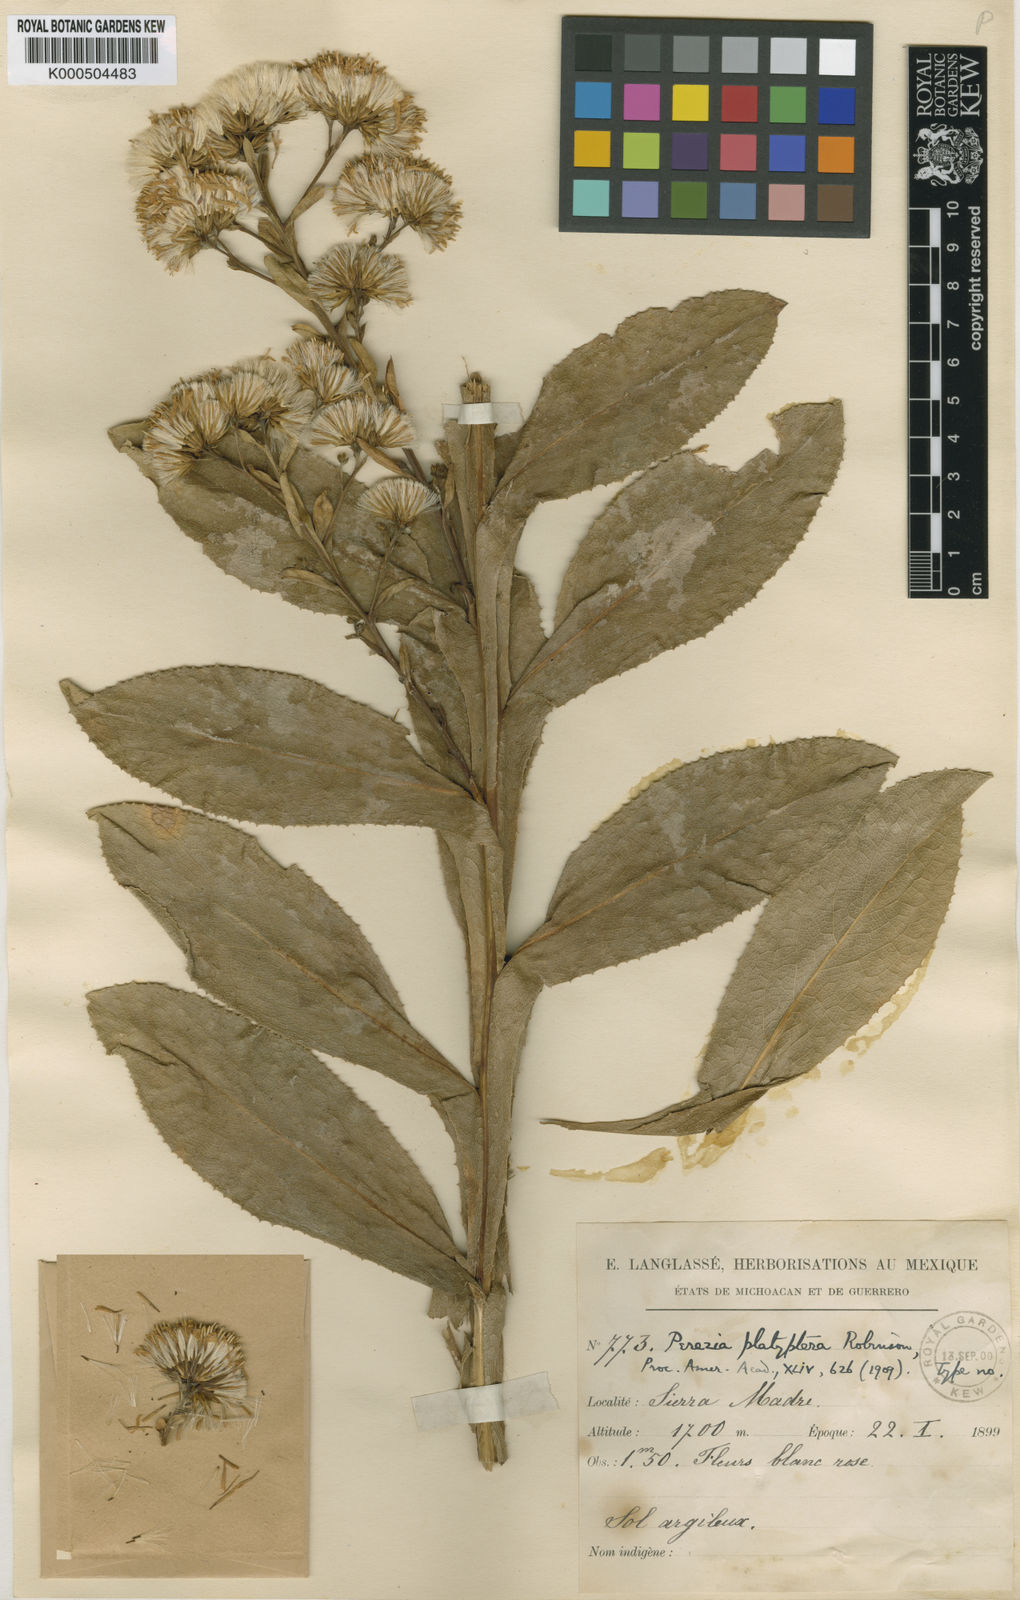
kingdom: Plantae
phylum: Tracheophyta
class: Magnoliopsida
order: Asterales
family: Asteraceae
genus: Acourtia
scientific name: Acourtia platyptera
